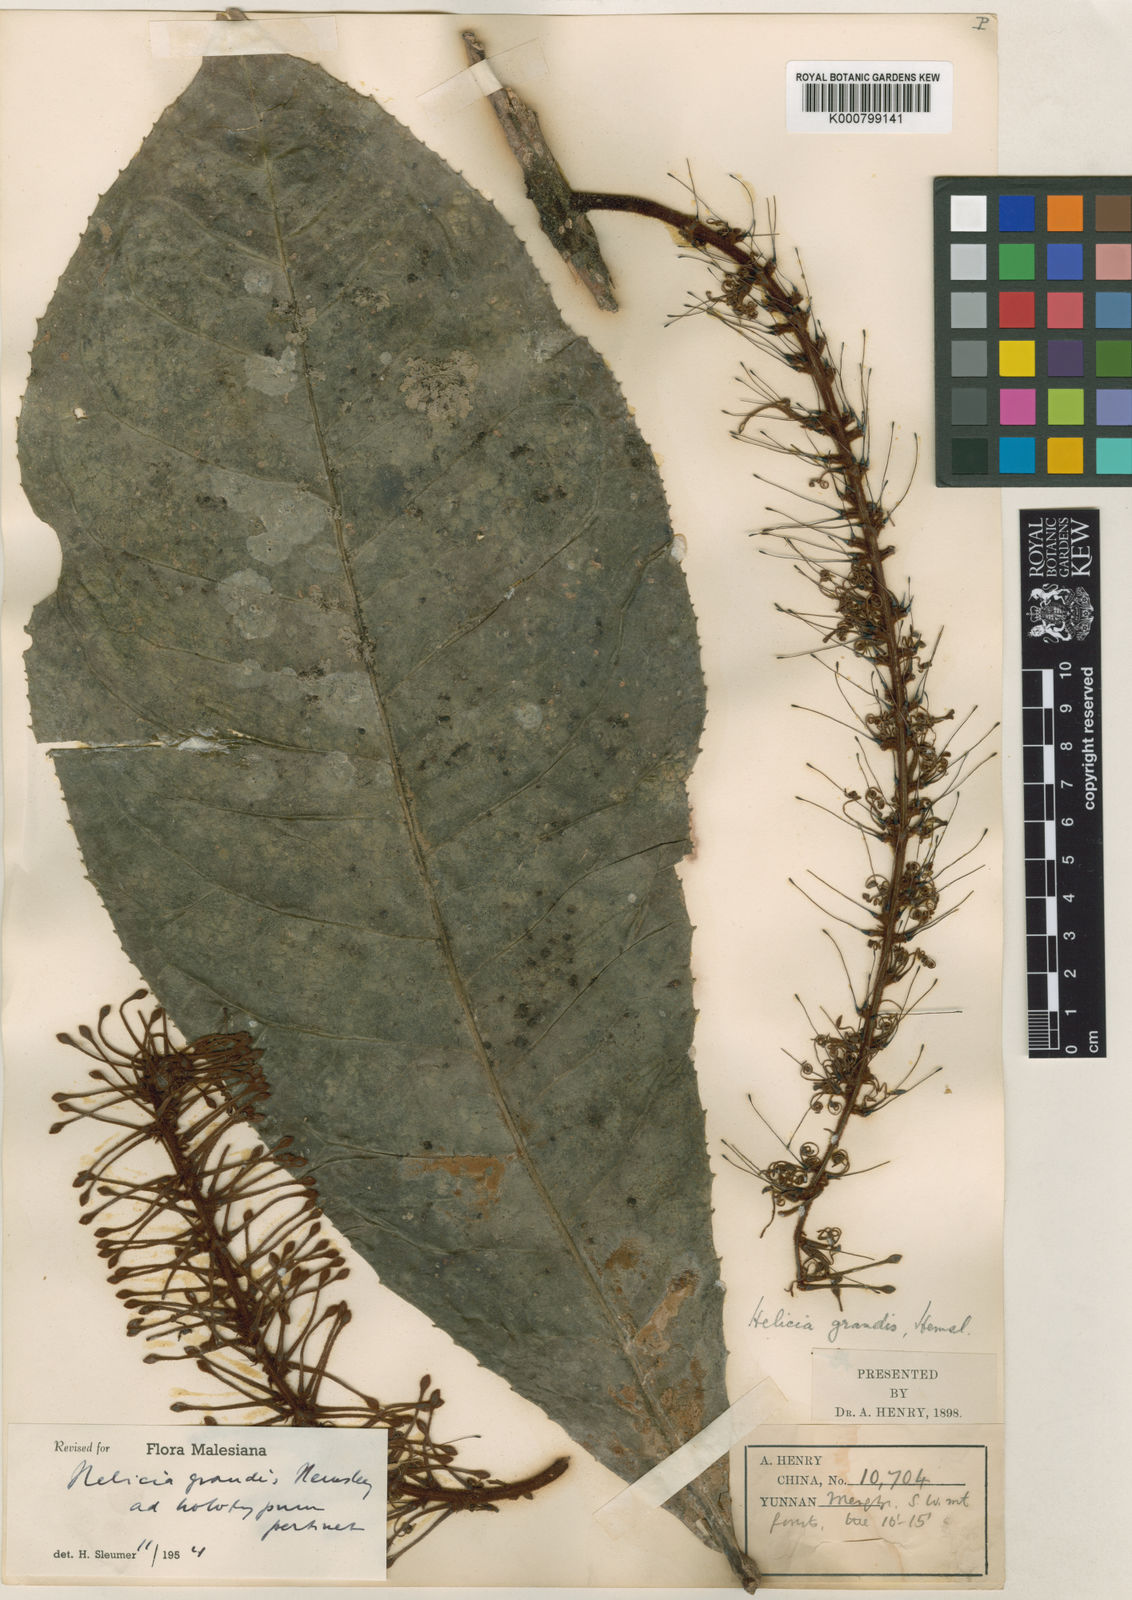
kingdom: Plantae
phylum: Tracheophyta
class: Magnoliopsida
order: Proteales
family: Proteaceae
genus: Helicia
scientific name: Helicia grandis
